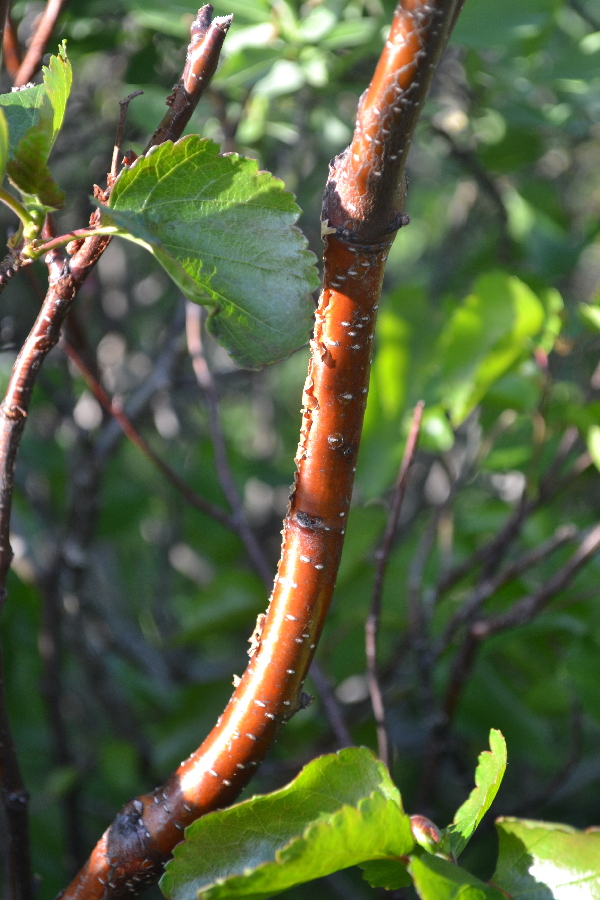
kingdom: Plantae
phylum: Tracheophyta
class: Magnoliopsida
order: Fagales
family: Betulaceae
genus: Betula
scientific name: Betula pubescens
